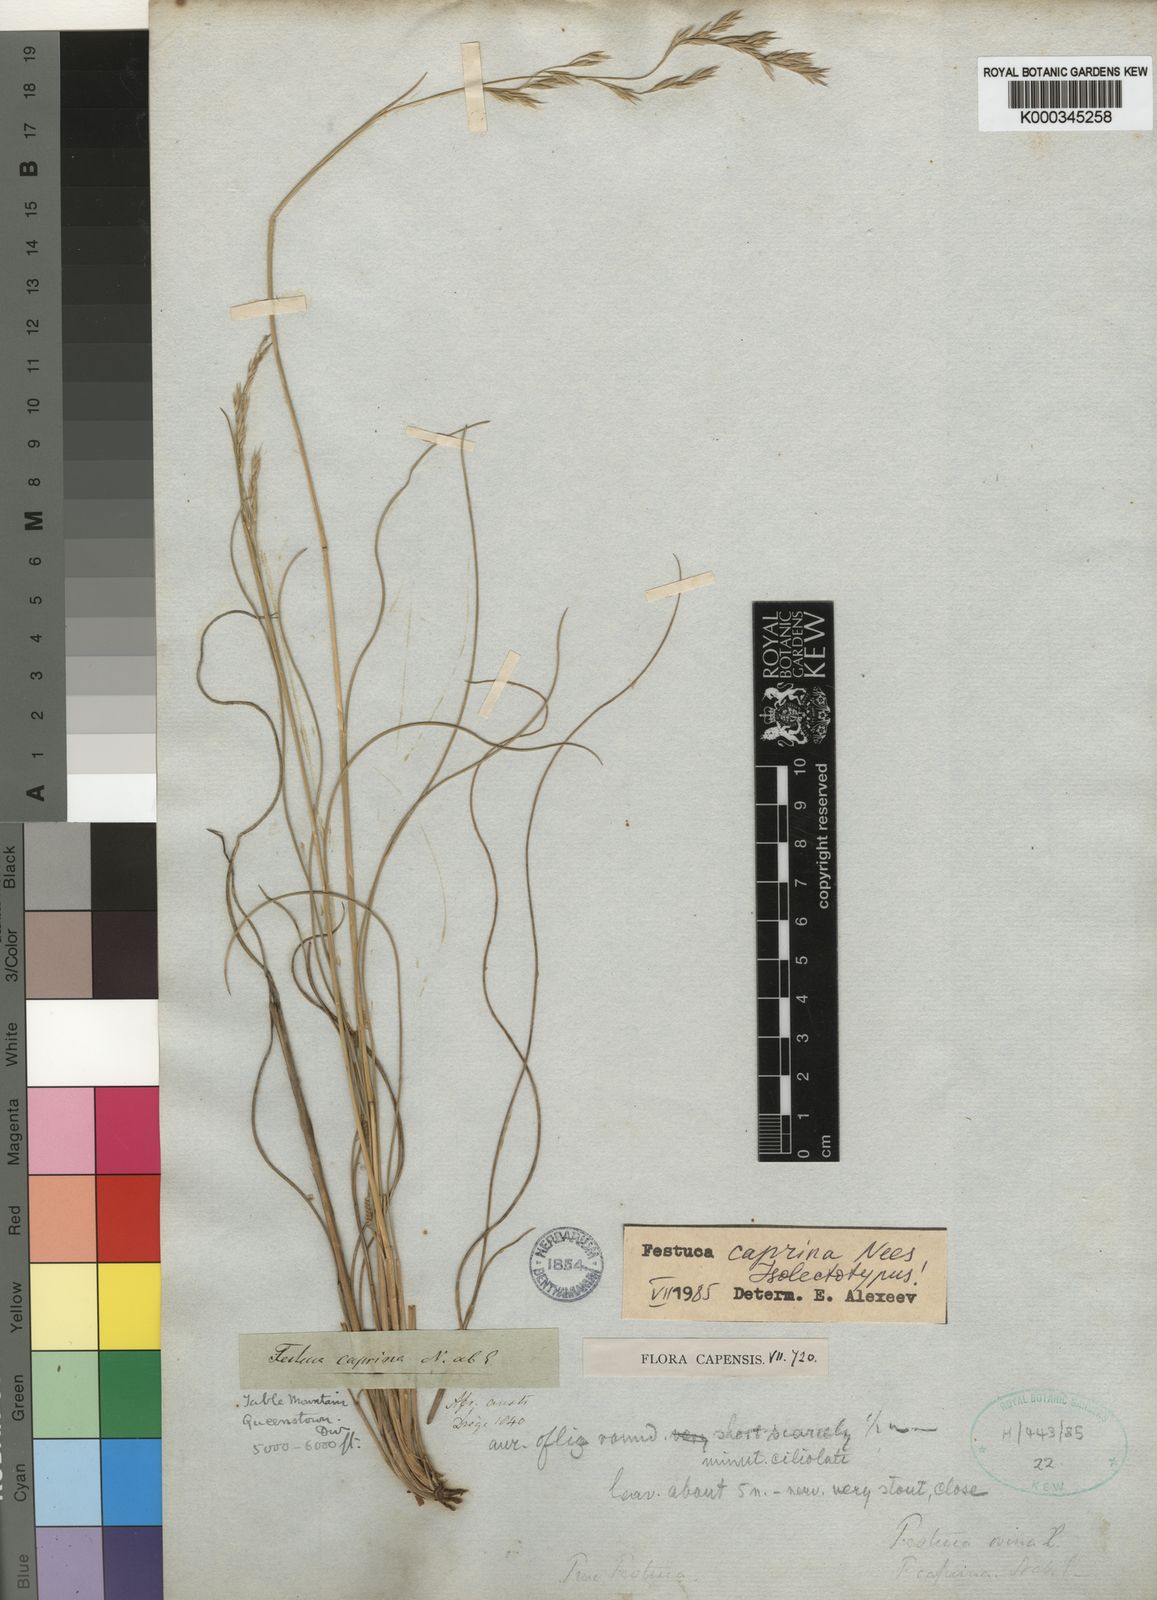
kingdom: Plantae
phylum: Tracheophyta
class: Liliopsida
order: Poales
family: Poaceae
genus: Festuca
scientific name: Festuca caprina
